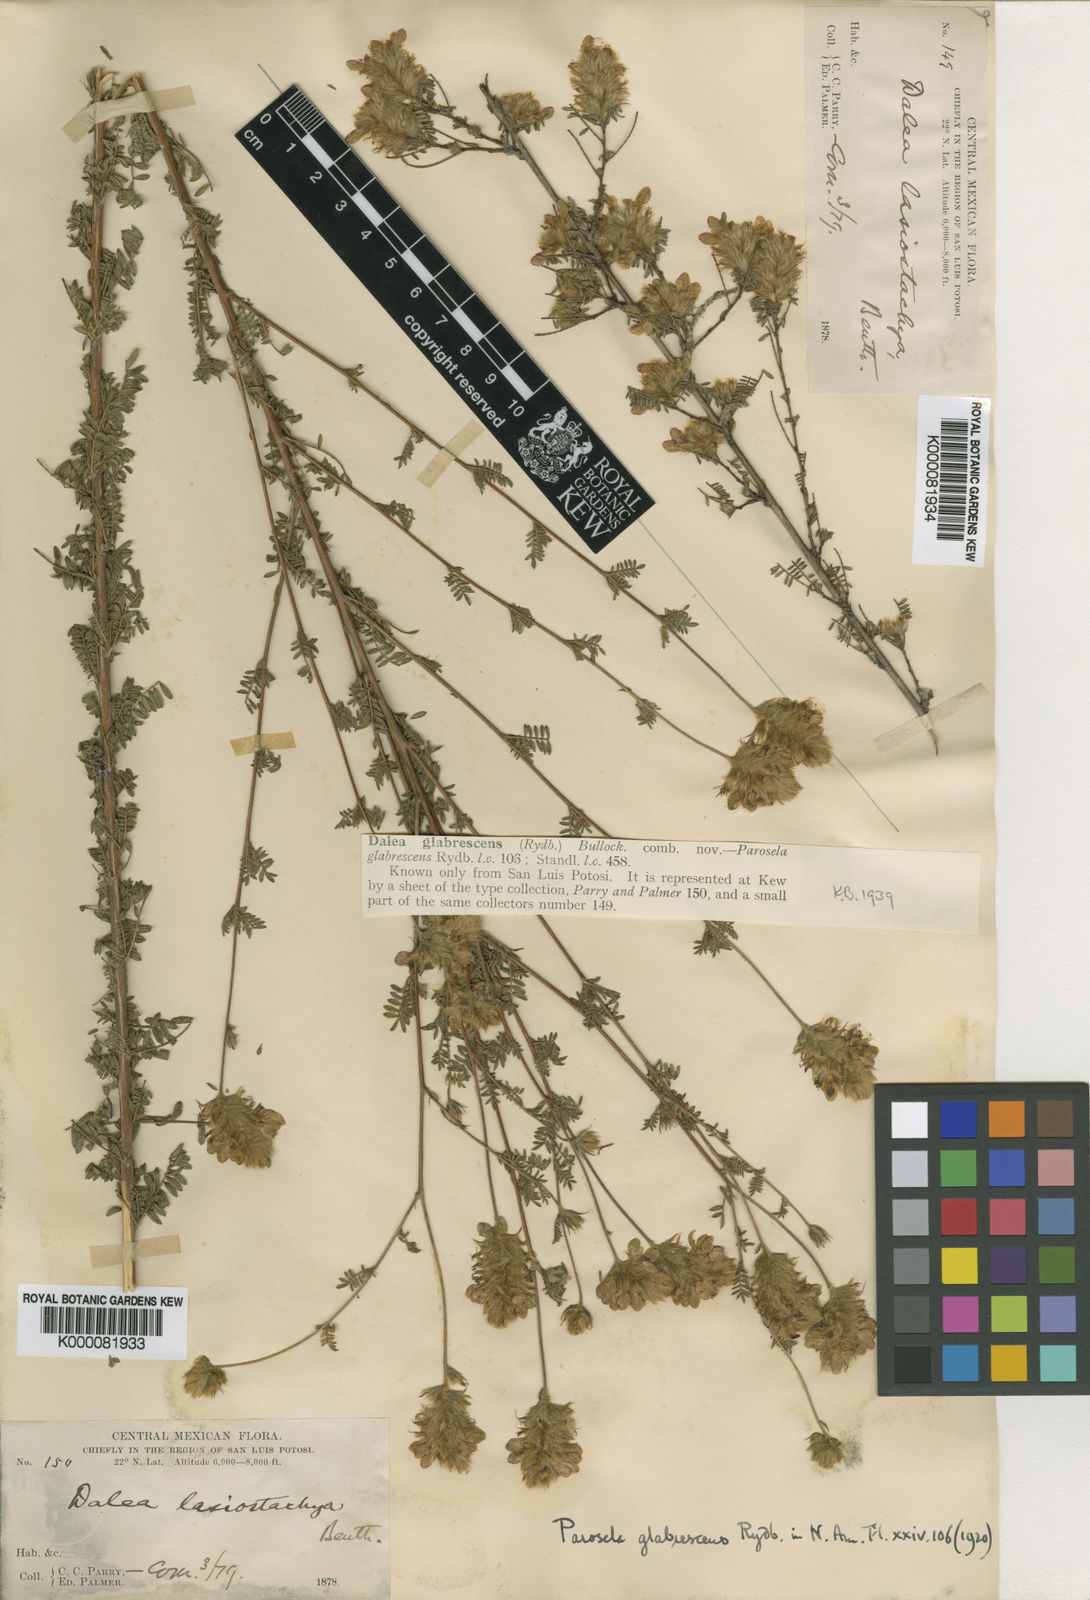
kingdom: Plantae
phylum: Tracheophyta
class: Magnoliopsida
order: Fabales
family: Fabaceae
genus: Dalea
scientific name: Dalea versicolor
